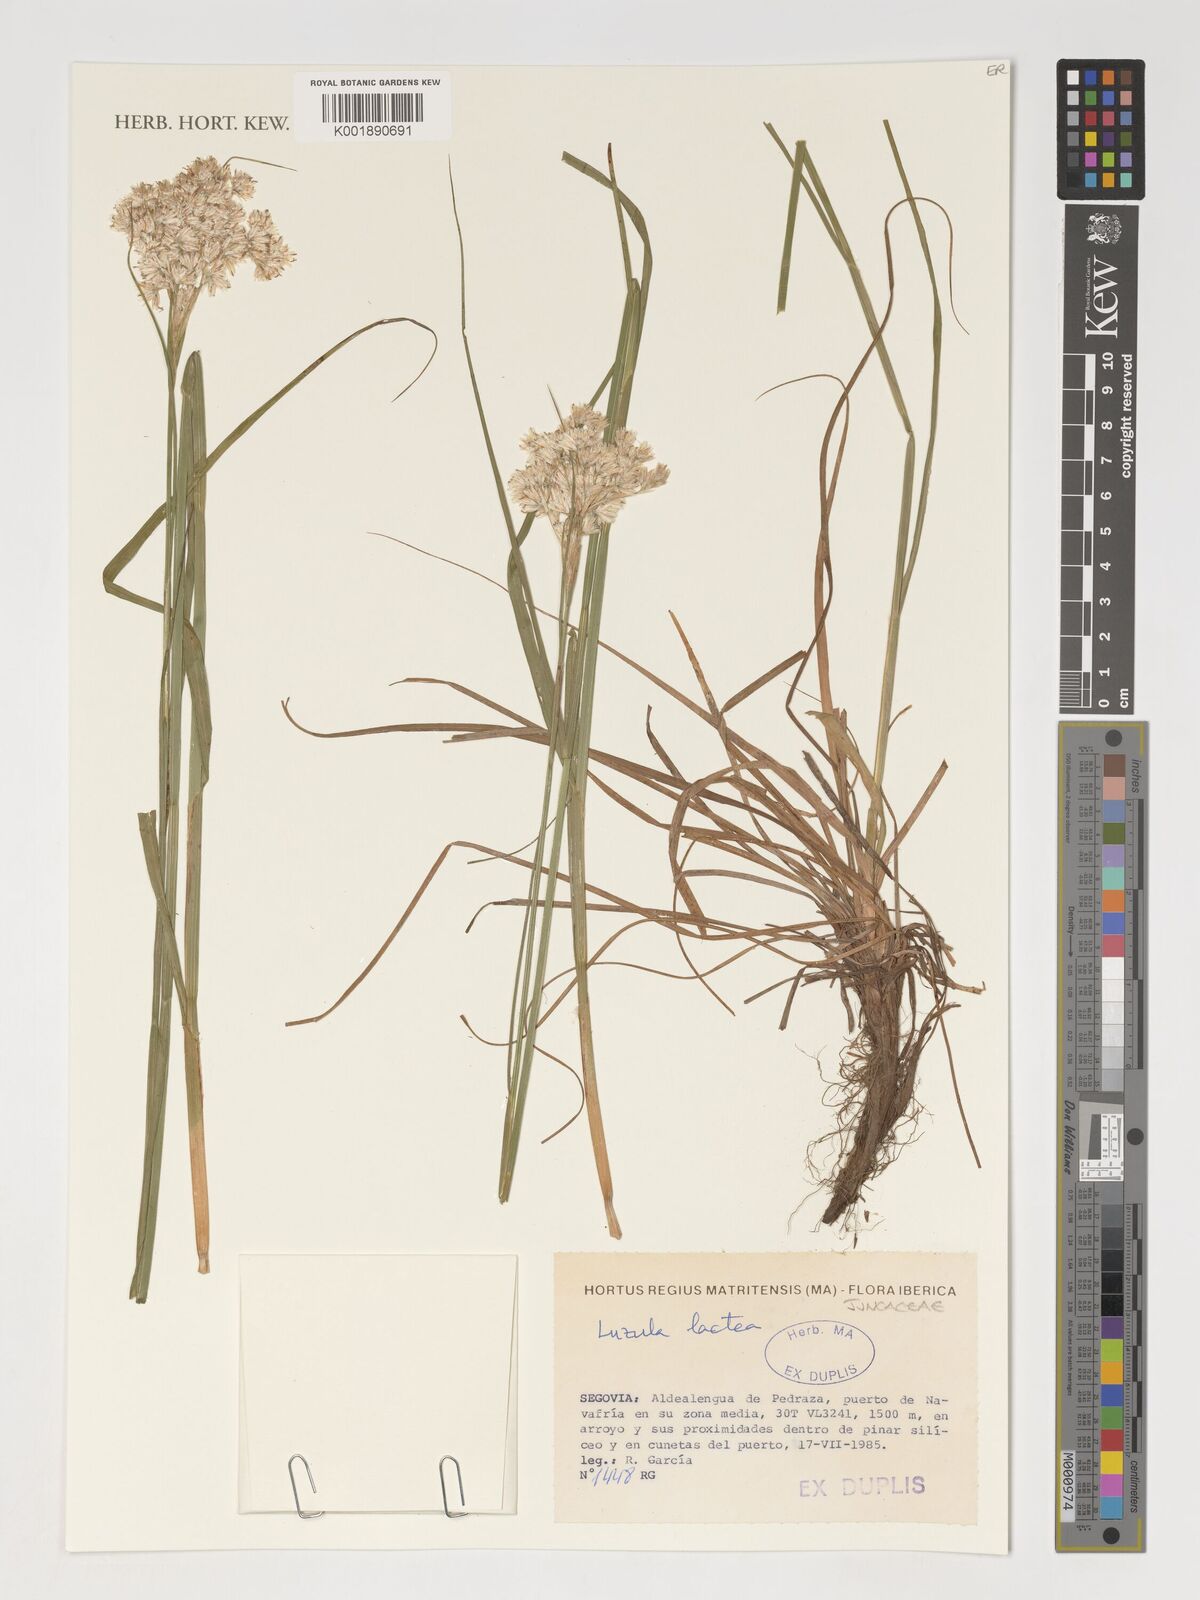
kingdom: Plantae
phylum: Tracheophyta
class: Liliopsida
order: Poales
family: Juncaceae
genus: Luzula
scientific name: Luzula lactea
